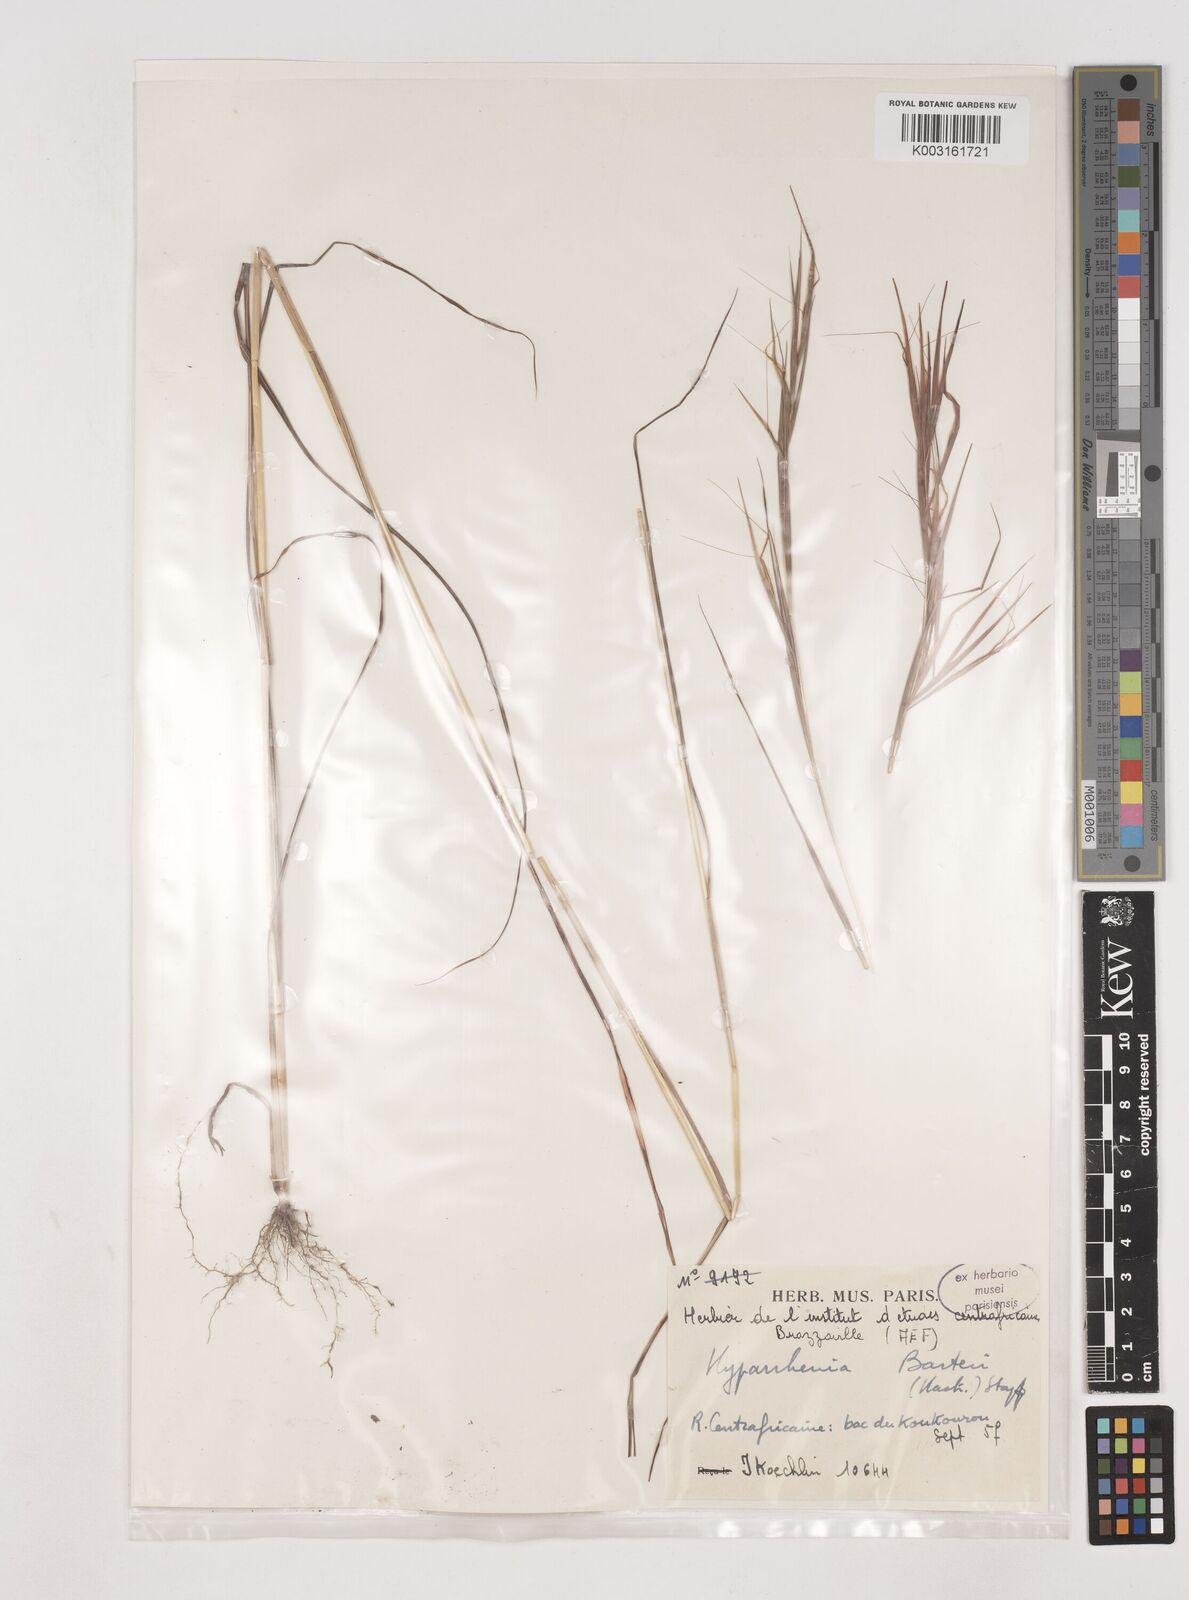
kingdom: Plantae
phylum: Tracheophyta
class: Liliopsida
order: Poales
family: Poaceae
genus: Hyparrhenia
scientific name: Hyparrhenia barteri
